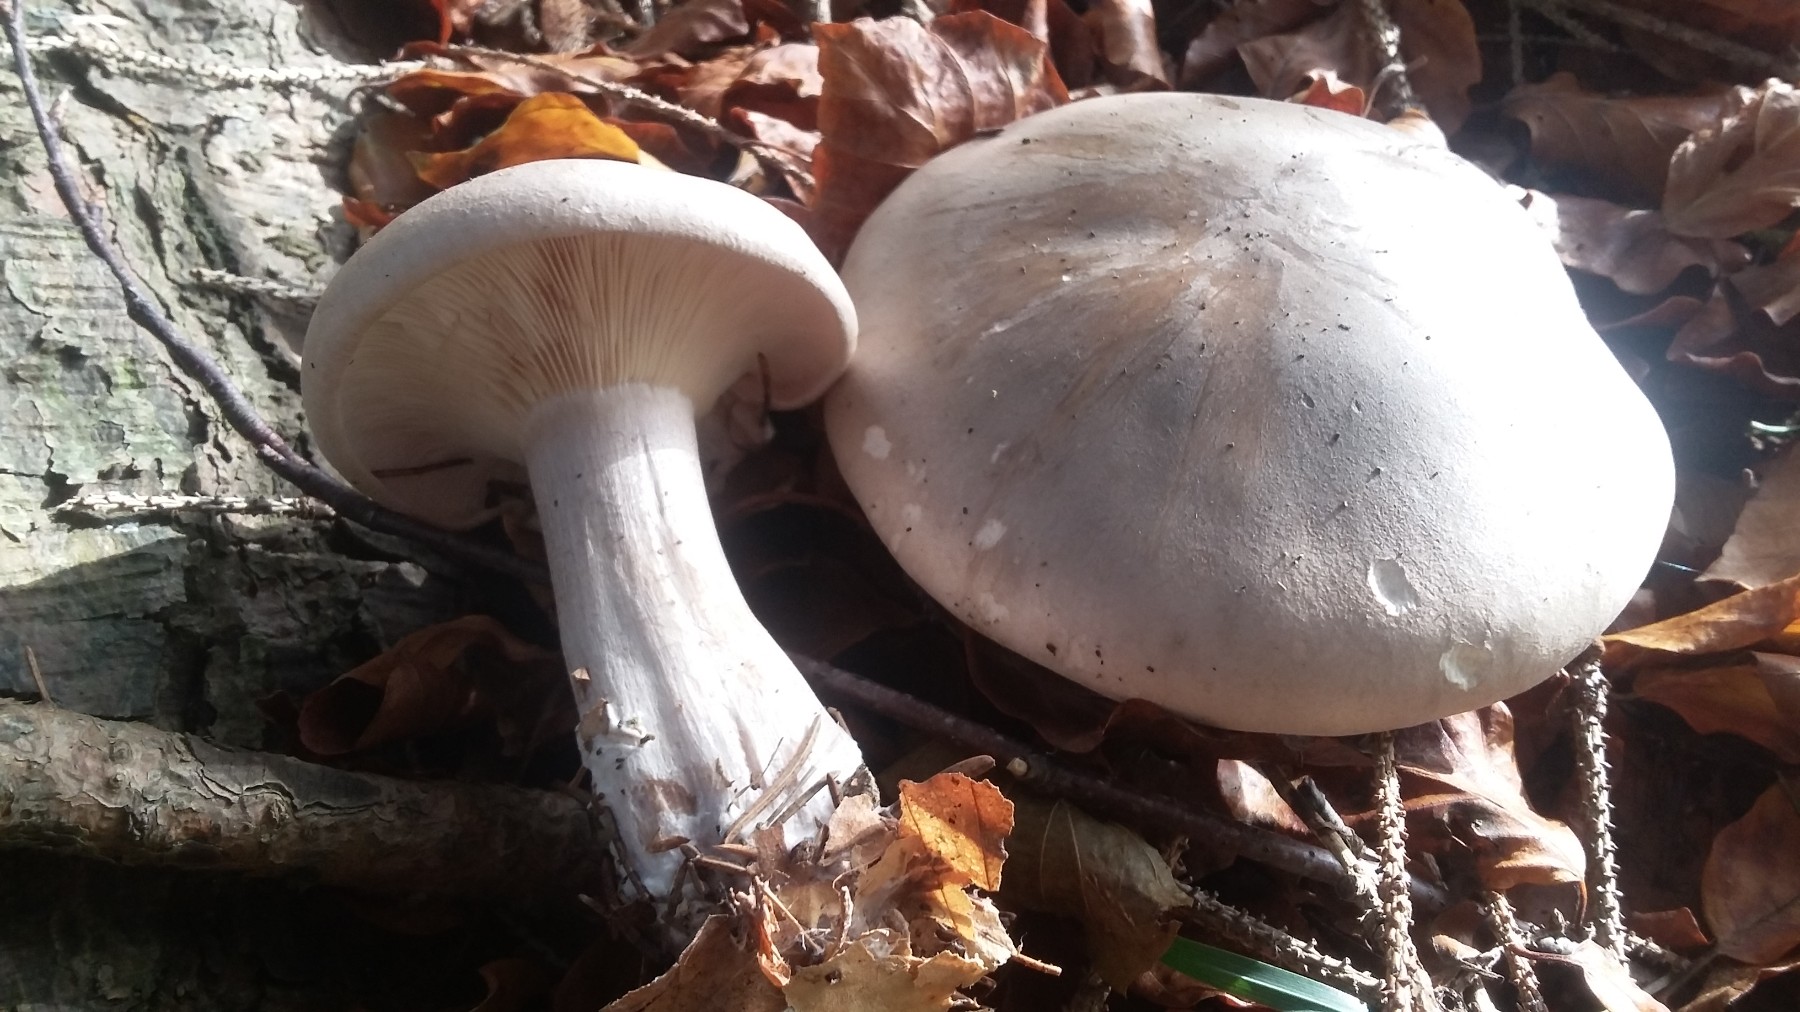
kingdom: Fungi
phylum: Basidiomycota
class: Agaricomycetes
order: Agaricales
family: Tricholomataceae
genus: Clitocybe
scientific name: Clitocybe nebularis
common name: tåge-tragthat
